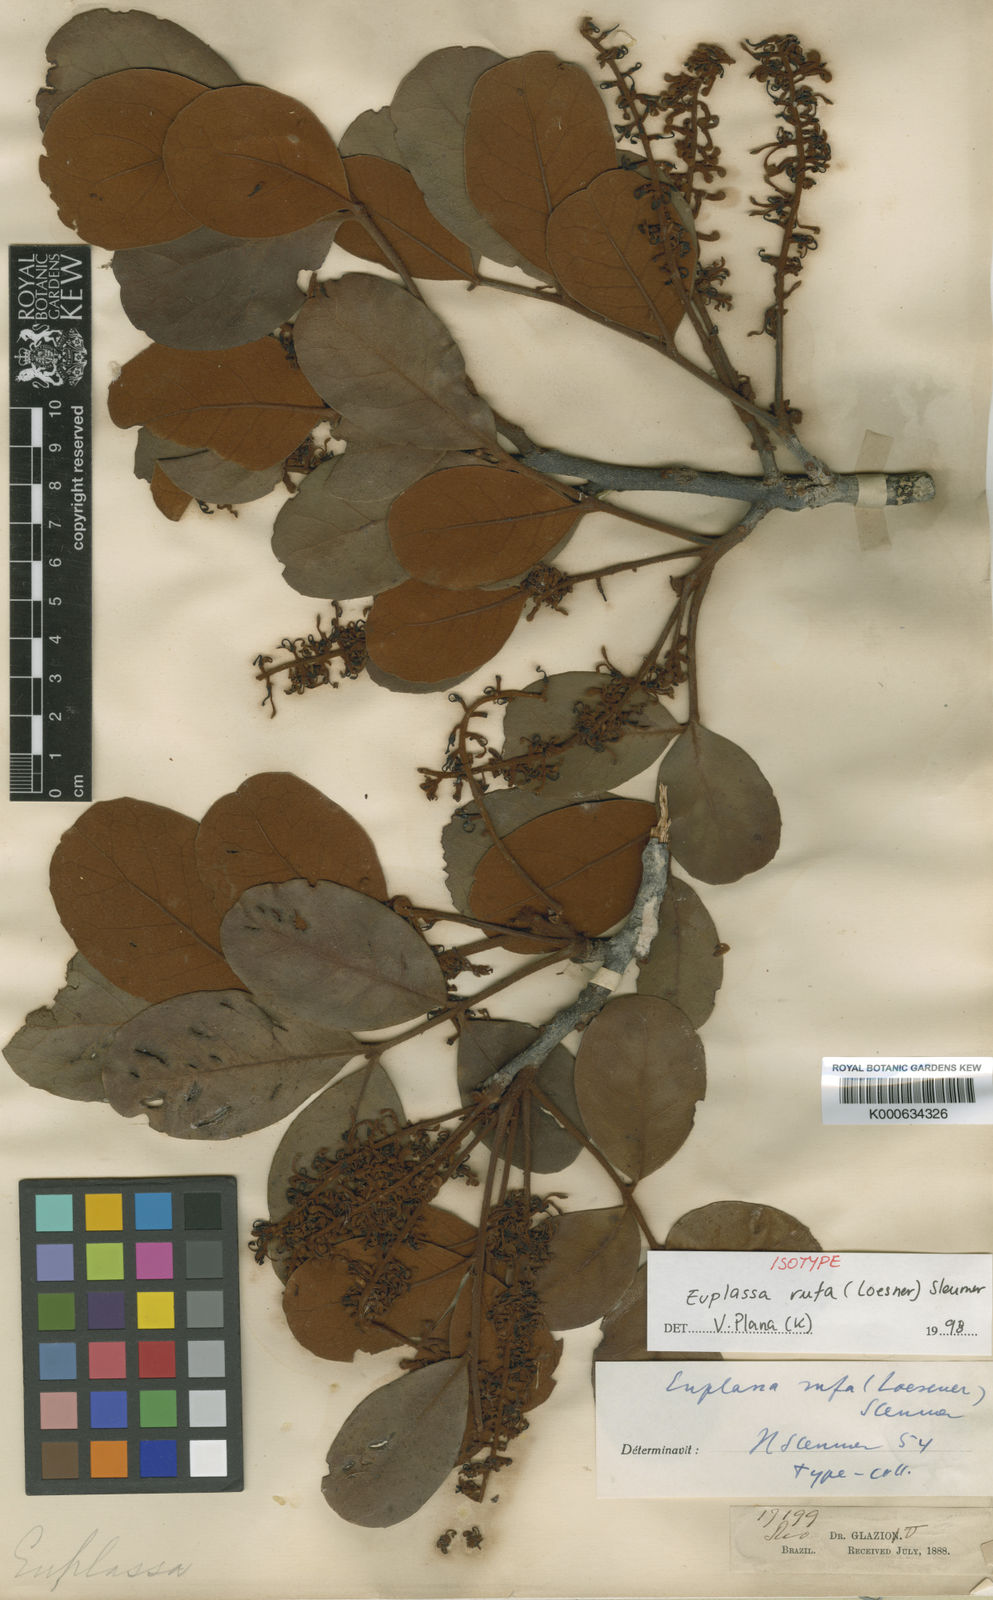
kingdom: Plantae
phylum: Tracheophyta
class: Magnoliopsida
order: Proteales
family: Proteaceae
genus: Euplassa
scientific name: Euplassa rufa
